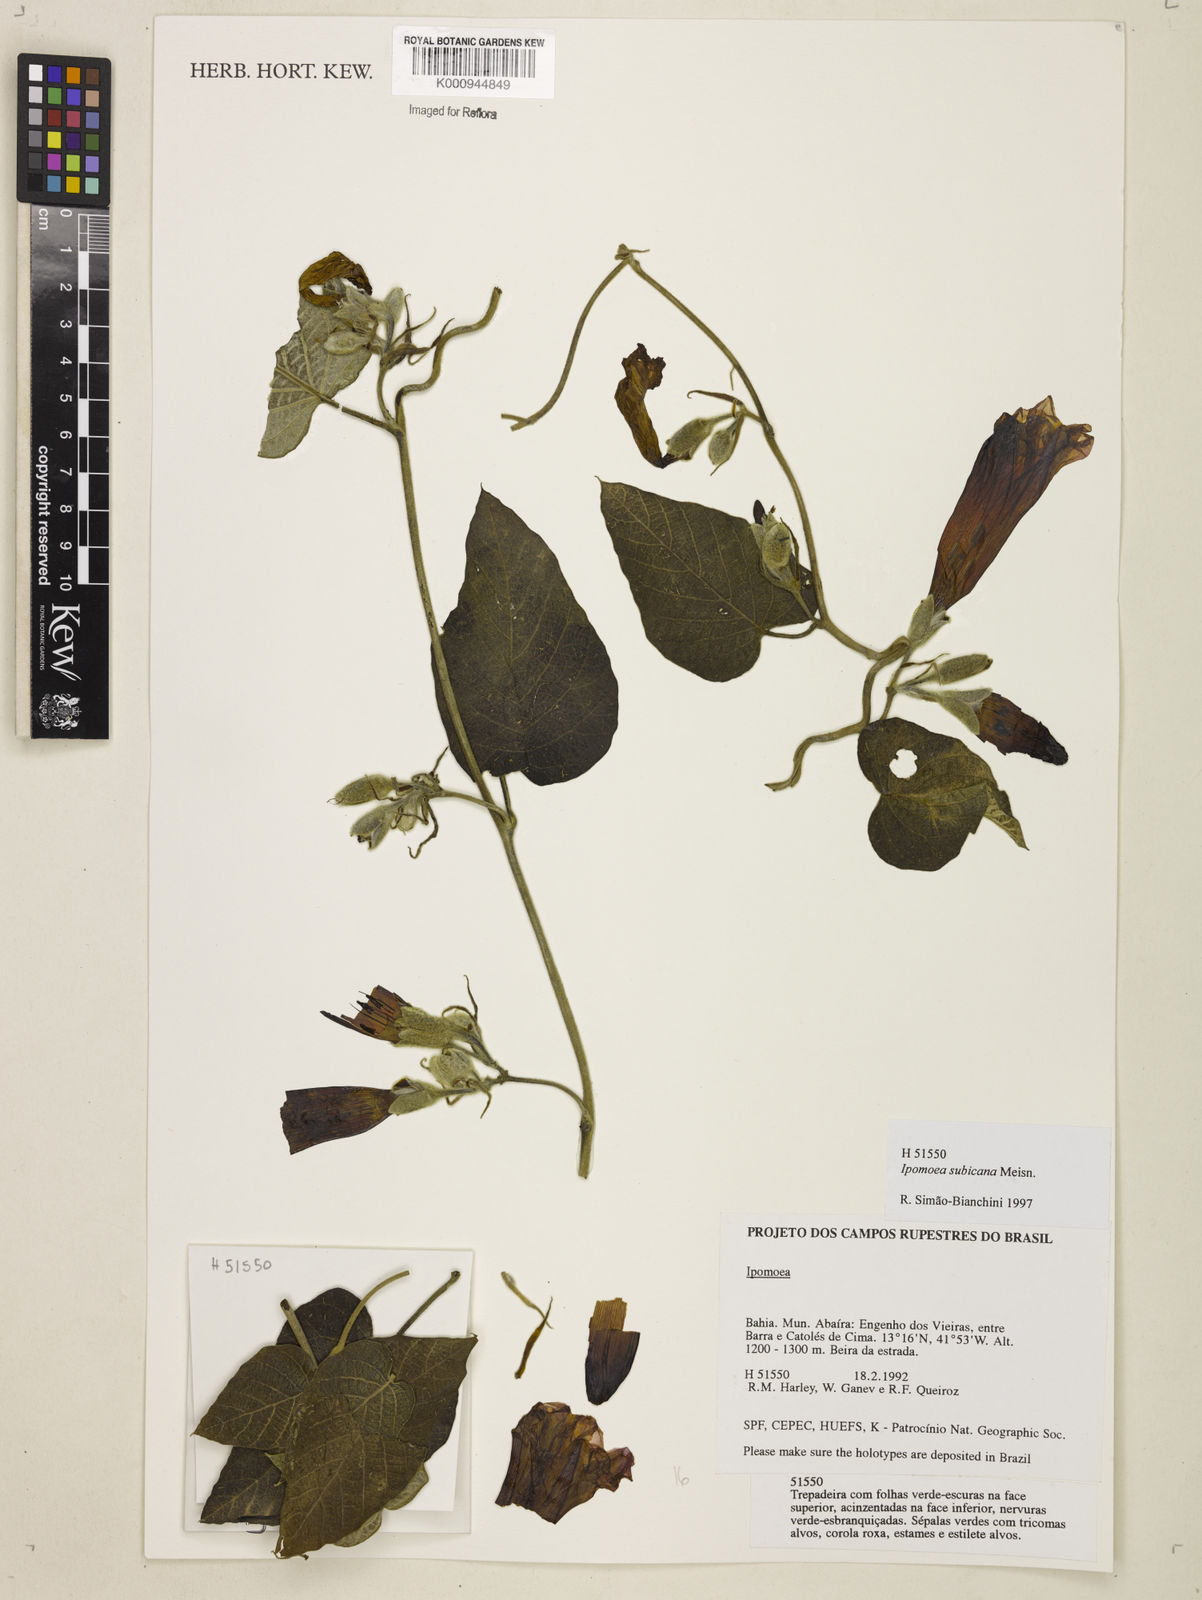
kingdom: Plantae
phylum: Tracheophyta
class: Magnoliopsida
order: Solanales
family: Convolvulaceae
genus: Ipomoea
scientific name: Ipomoea brasiliana
